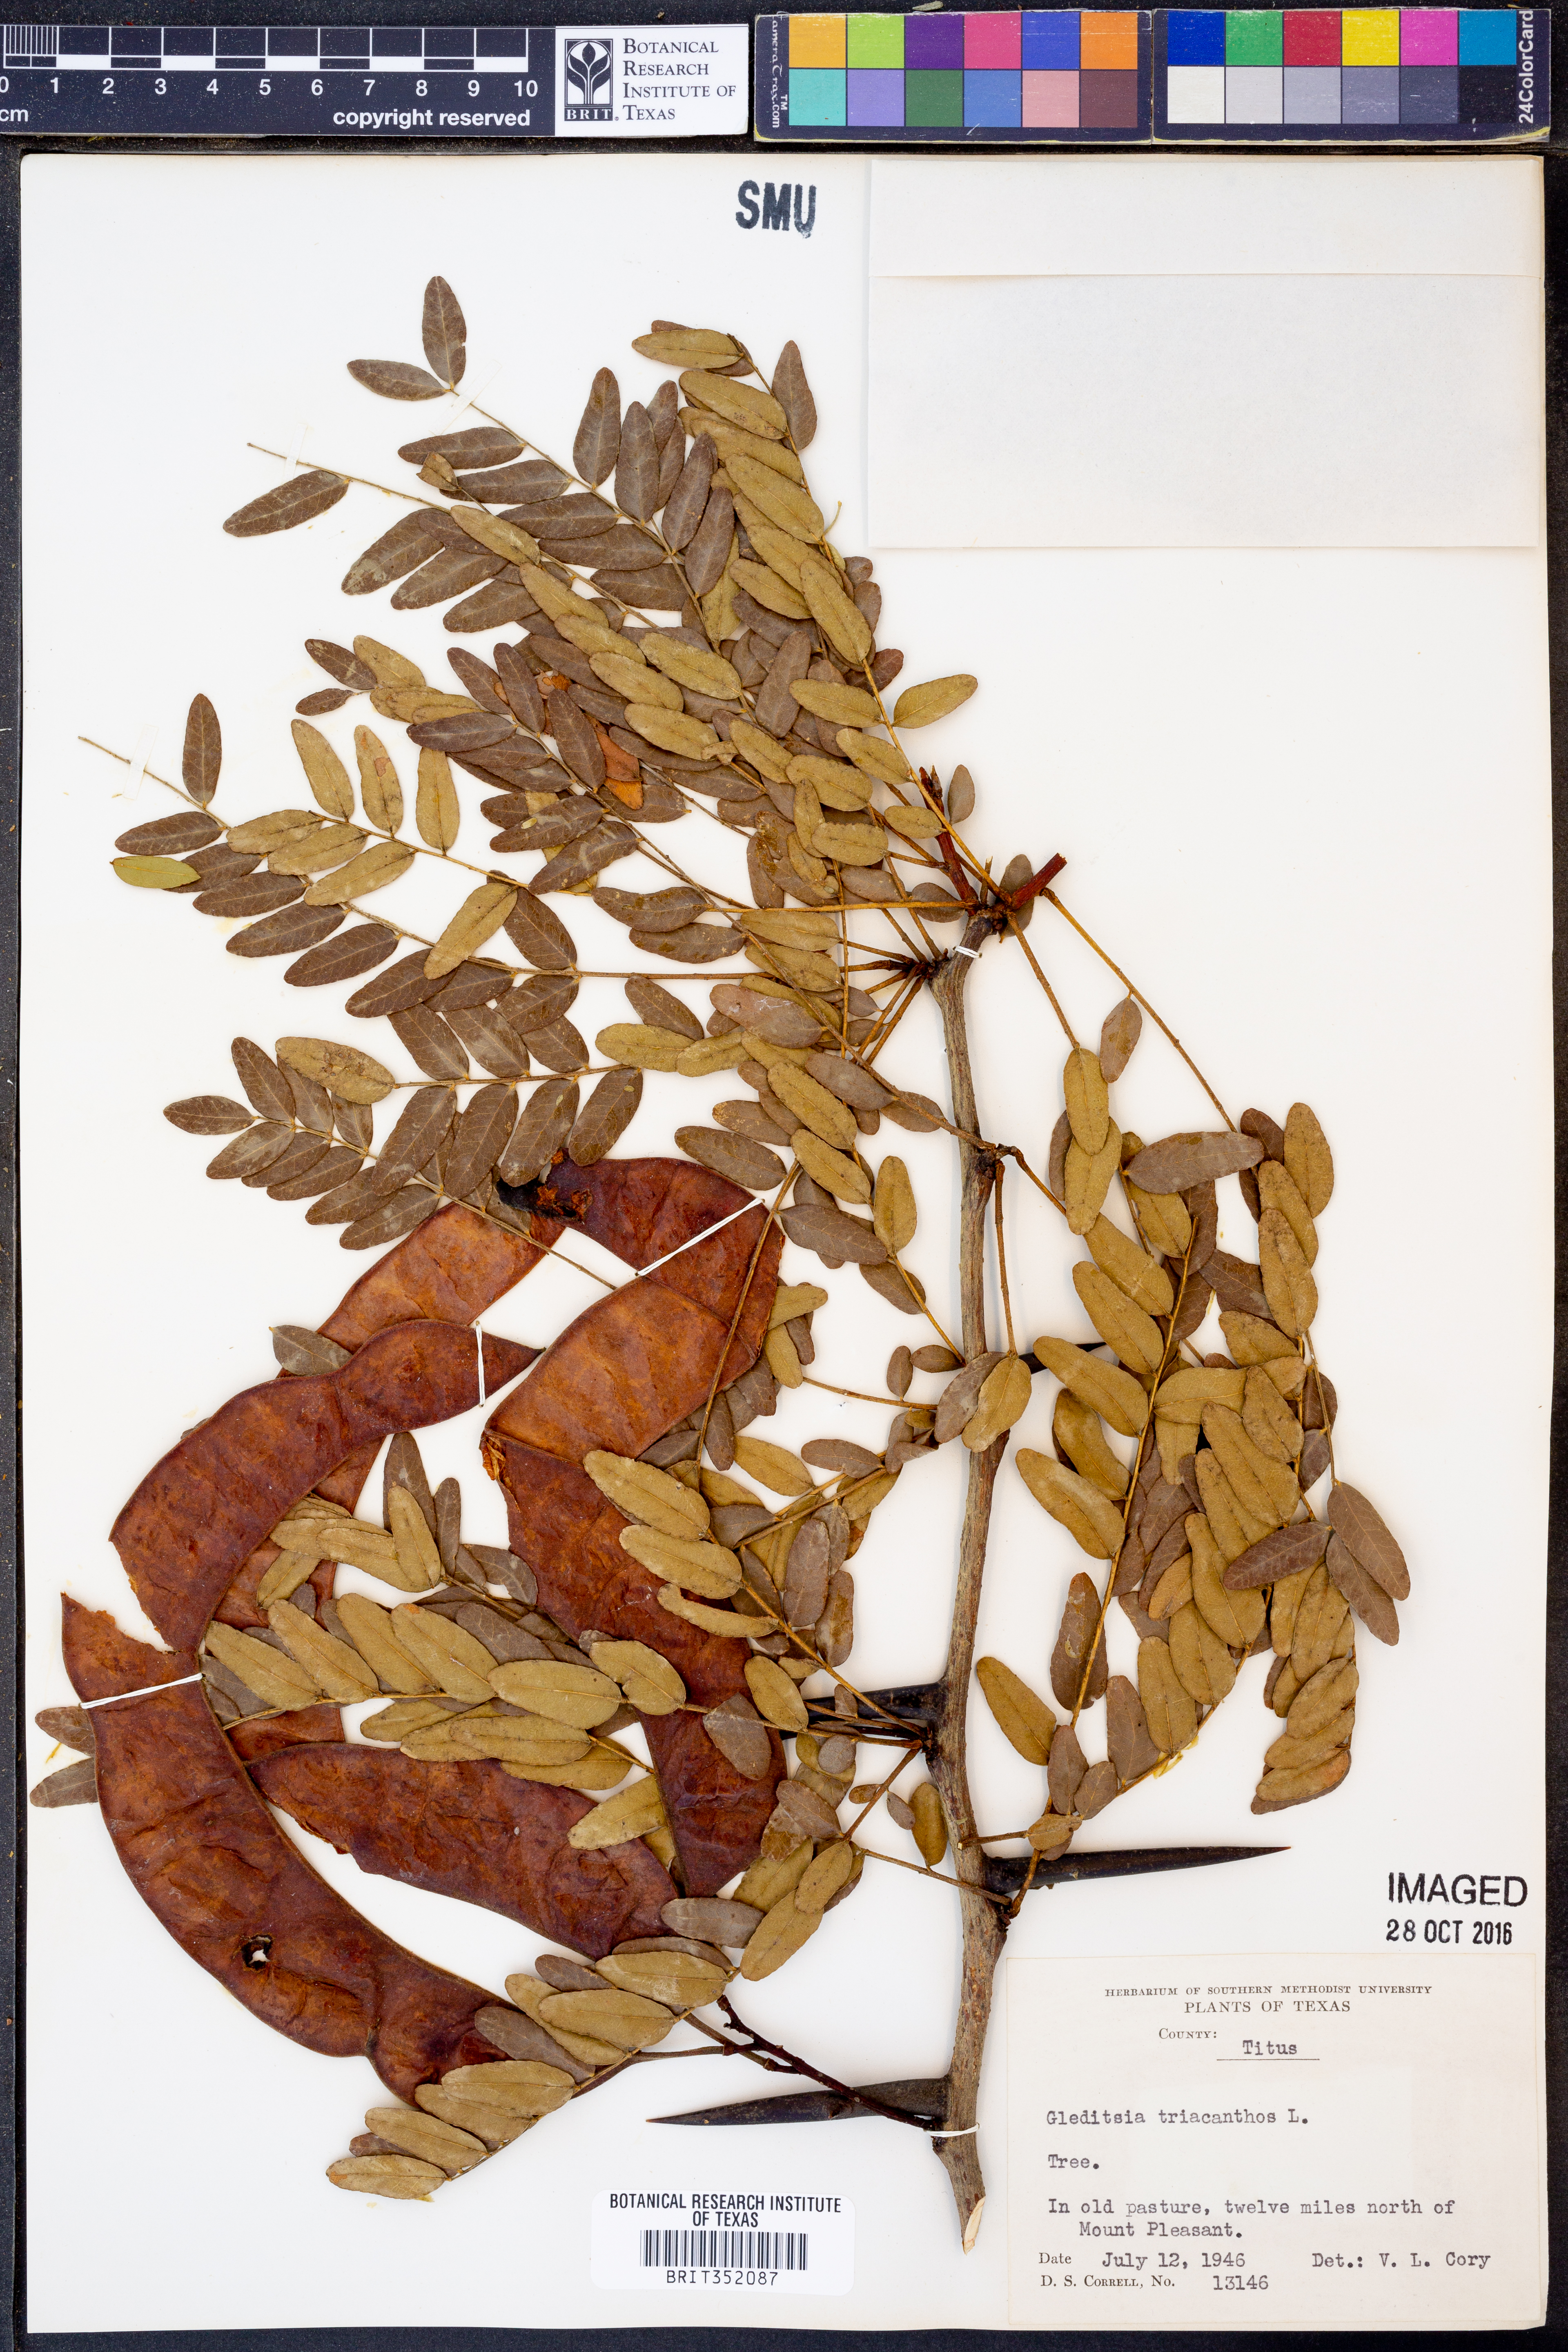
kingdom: Plantae
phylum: Tracheophyta
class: Magnoliopsida
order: Fabales
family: Fabaceae
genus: Gleditsia
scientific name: Gleditsia triacanthos
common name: Common honeylocust
